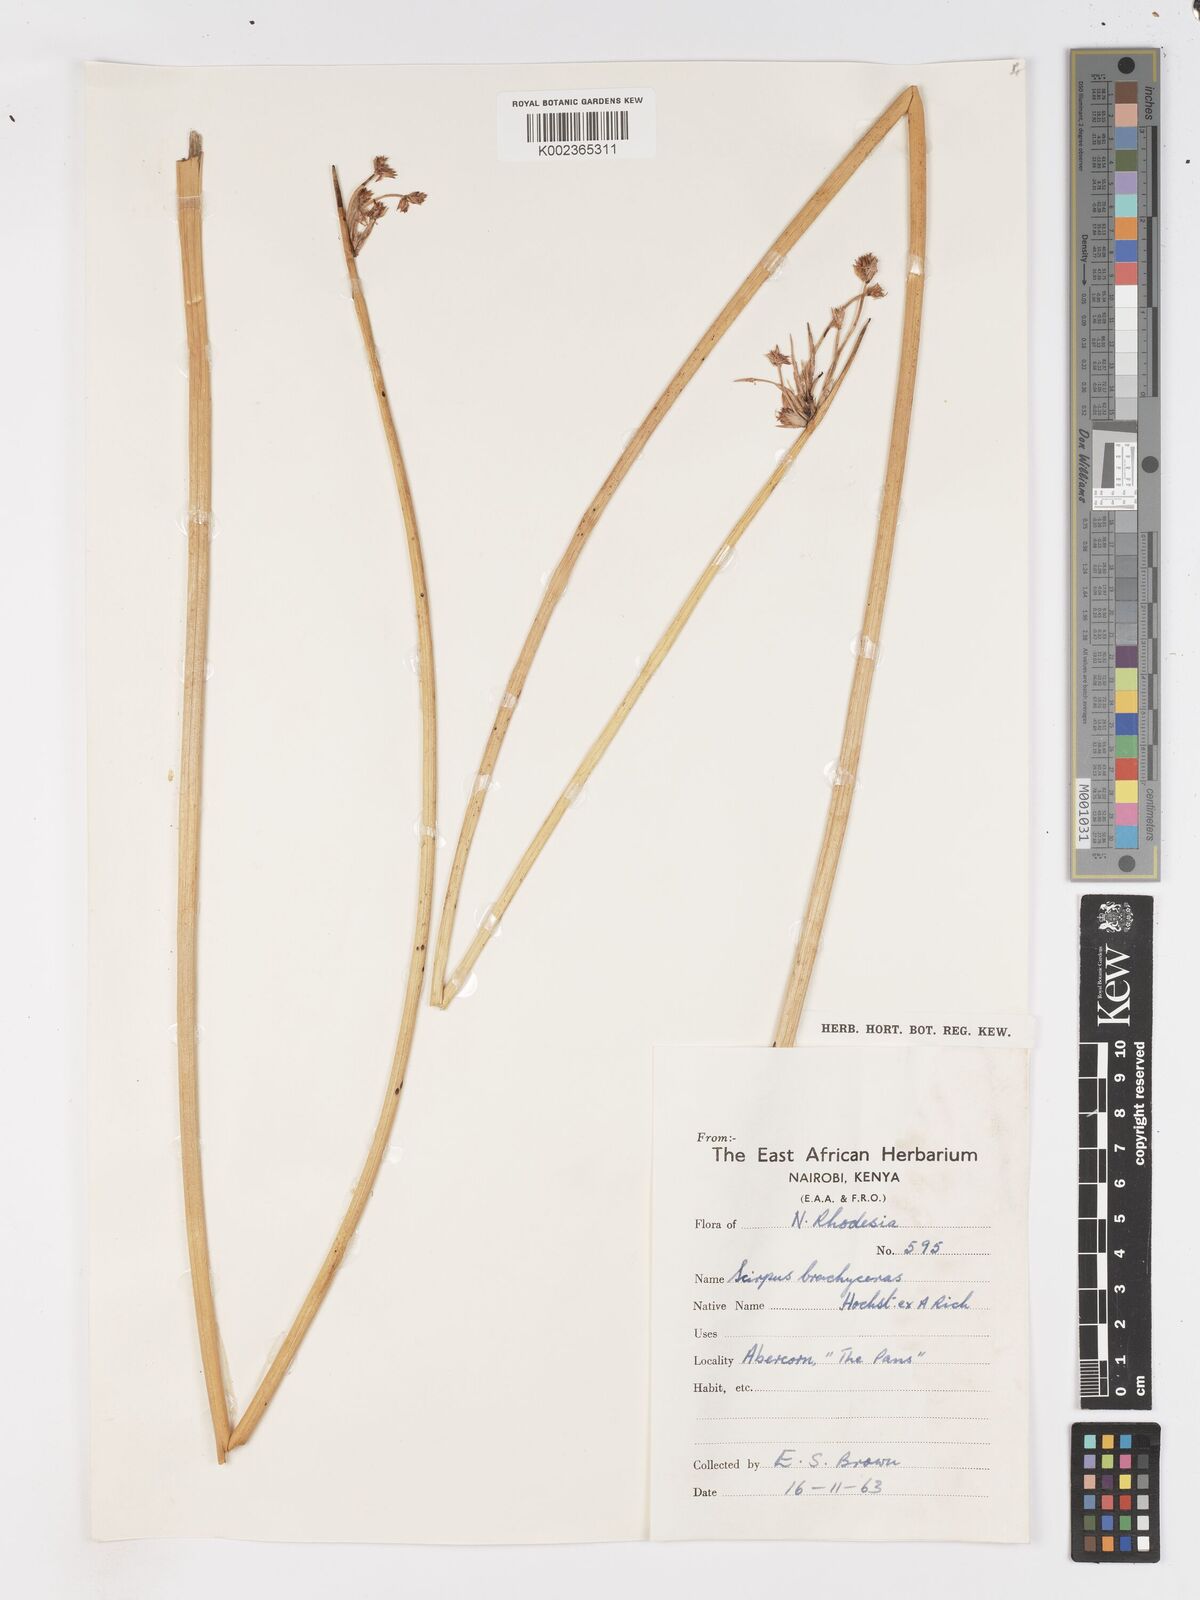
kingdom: Plantae
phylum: Tracheophyta
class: Liliopsida
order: Poales
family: Cyperaceae
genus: Schoenoplectus
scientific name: Schoenoplectus
